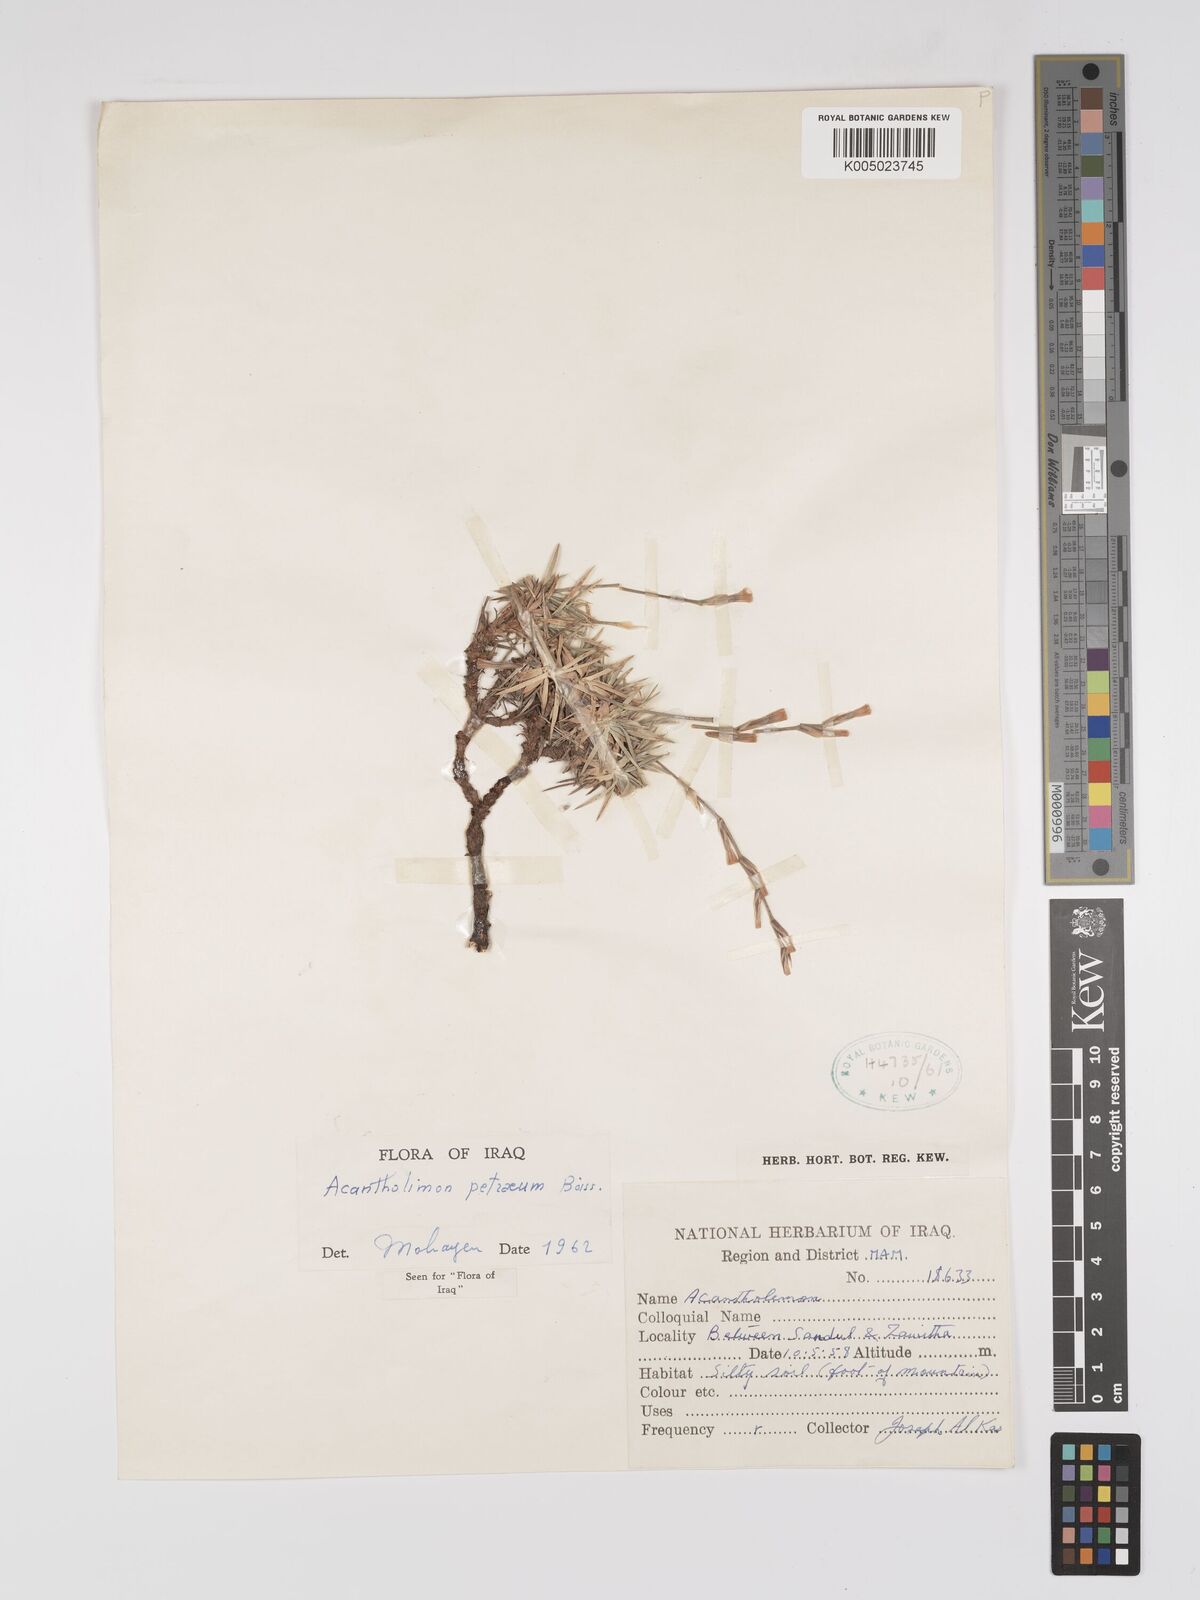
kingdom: Plantae
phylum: Tracheophyta
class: Magnoliopsida
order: Caryophyllales
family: Plumbaginaceae
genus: Acantholimon
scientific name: Acantholimon petraeum
